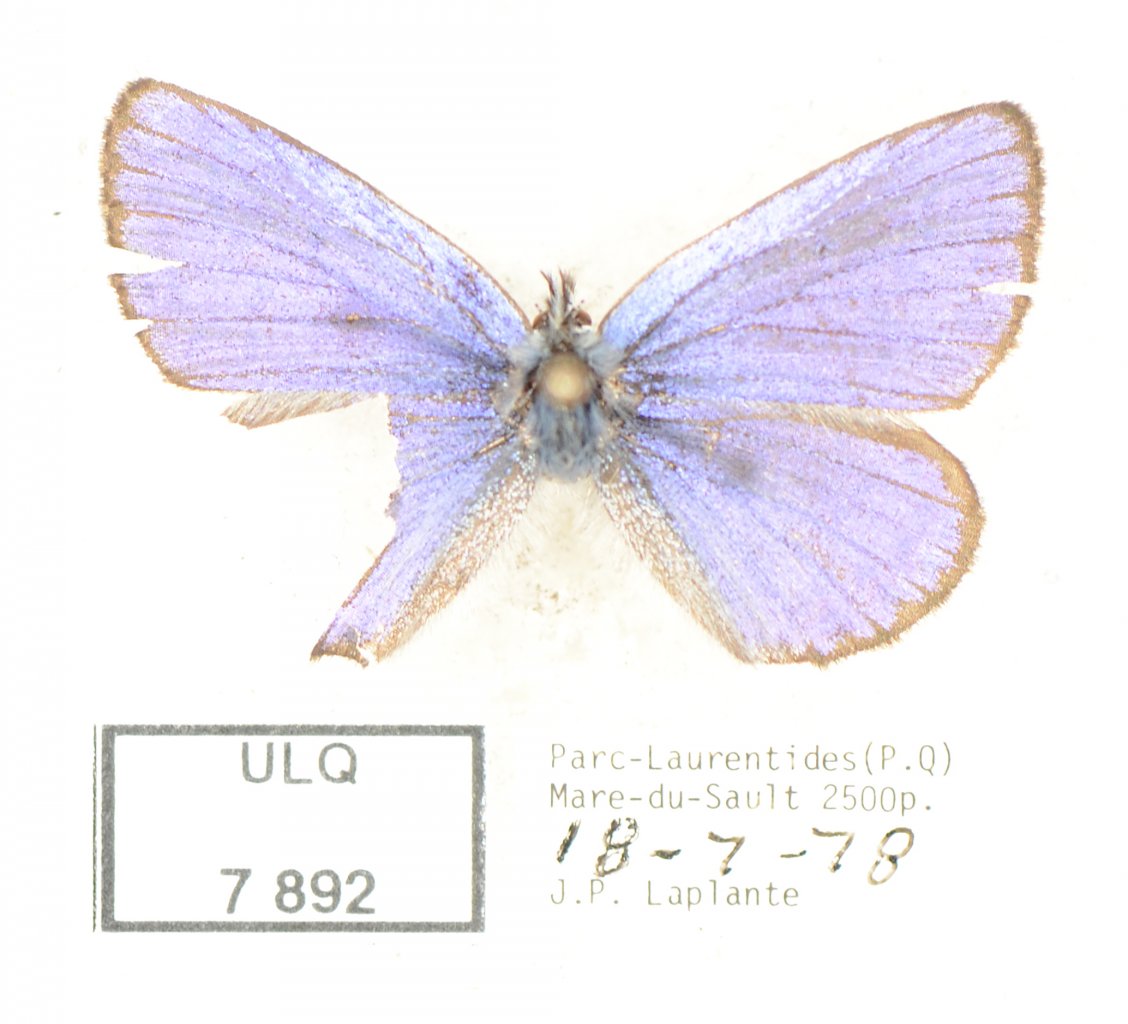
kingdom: Animalia
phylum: Arthropoda
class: Insecta
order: Lepidoptera
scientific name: Lepidoptera
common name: Butterflies
